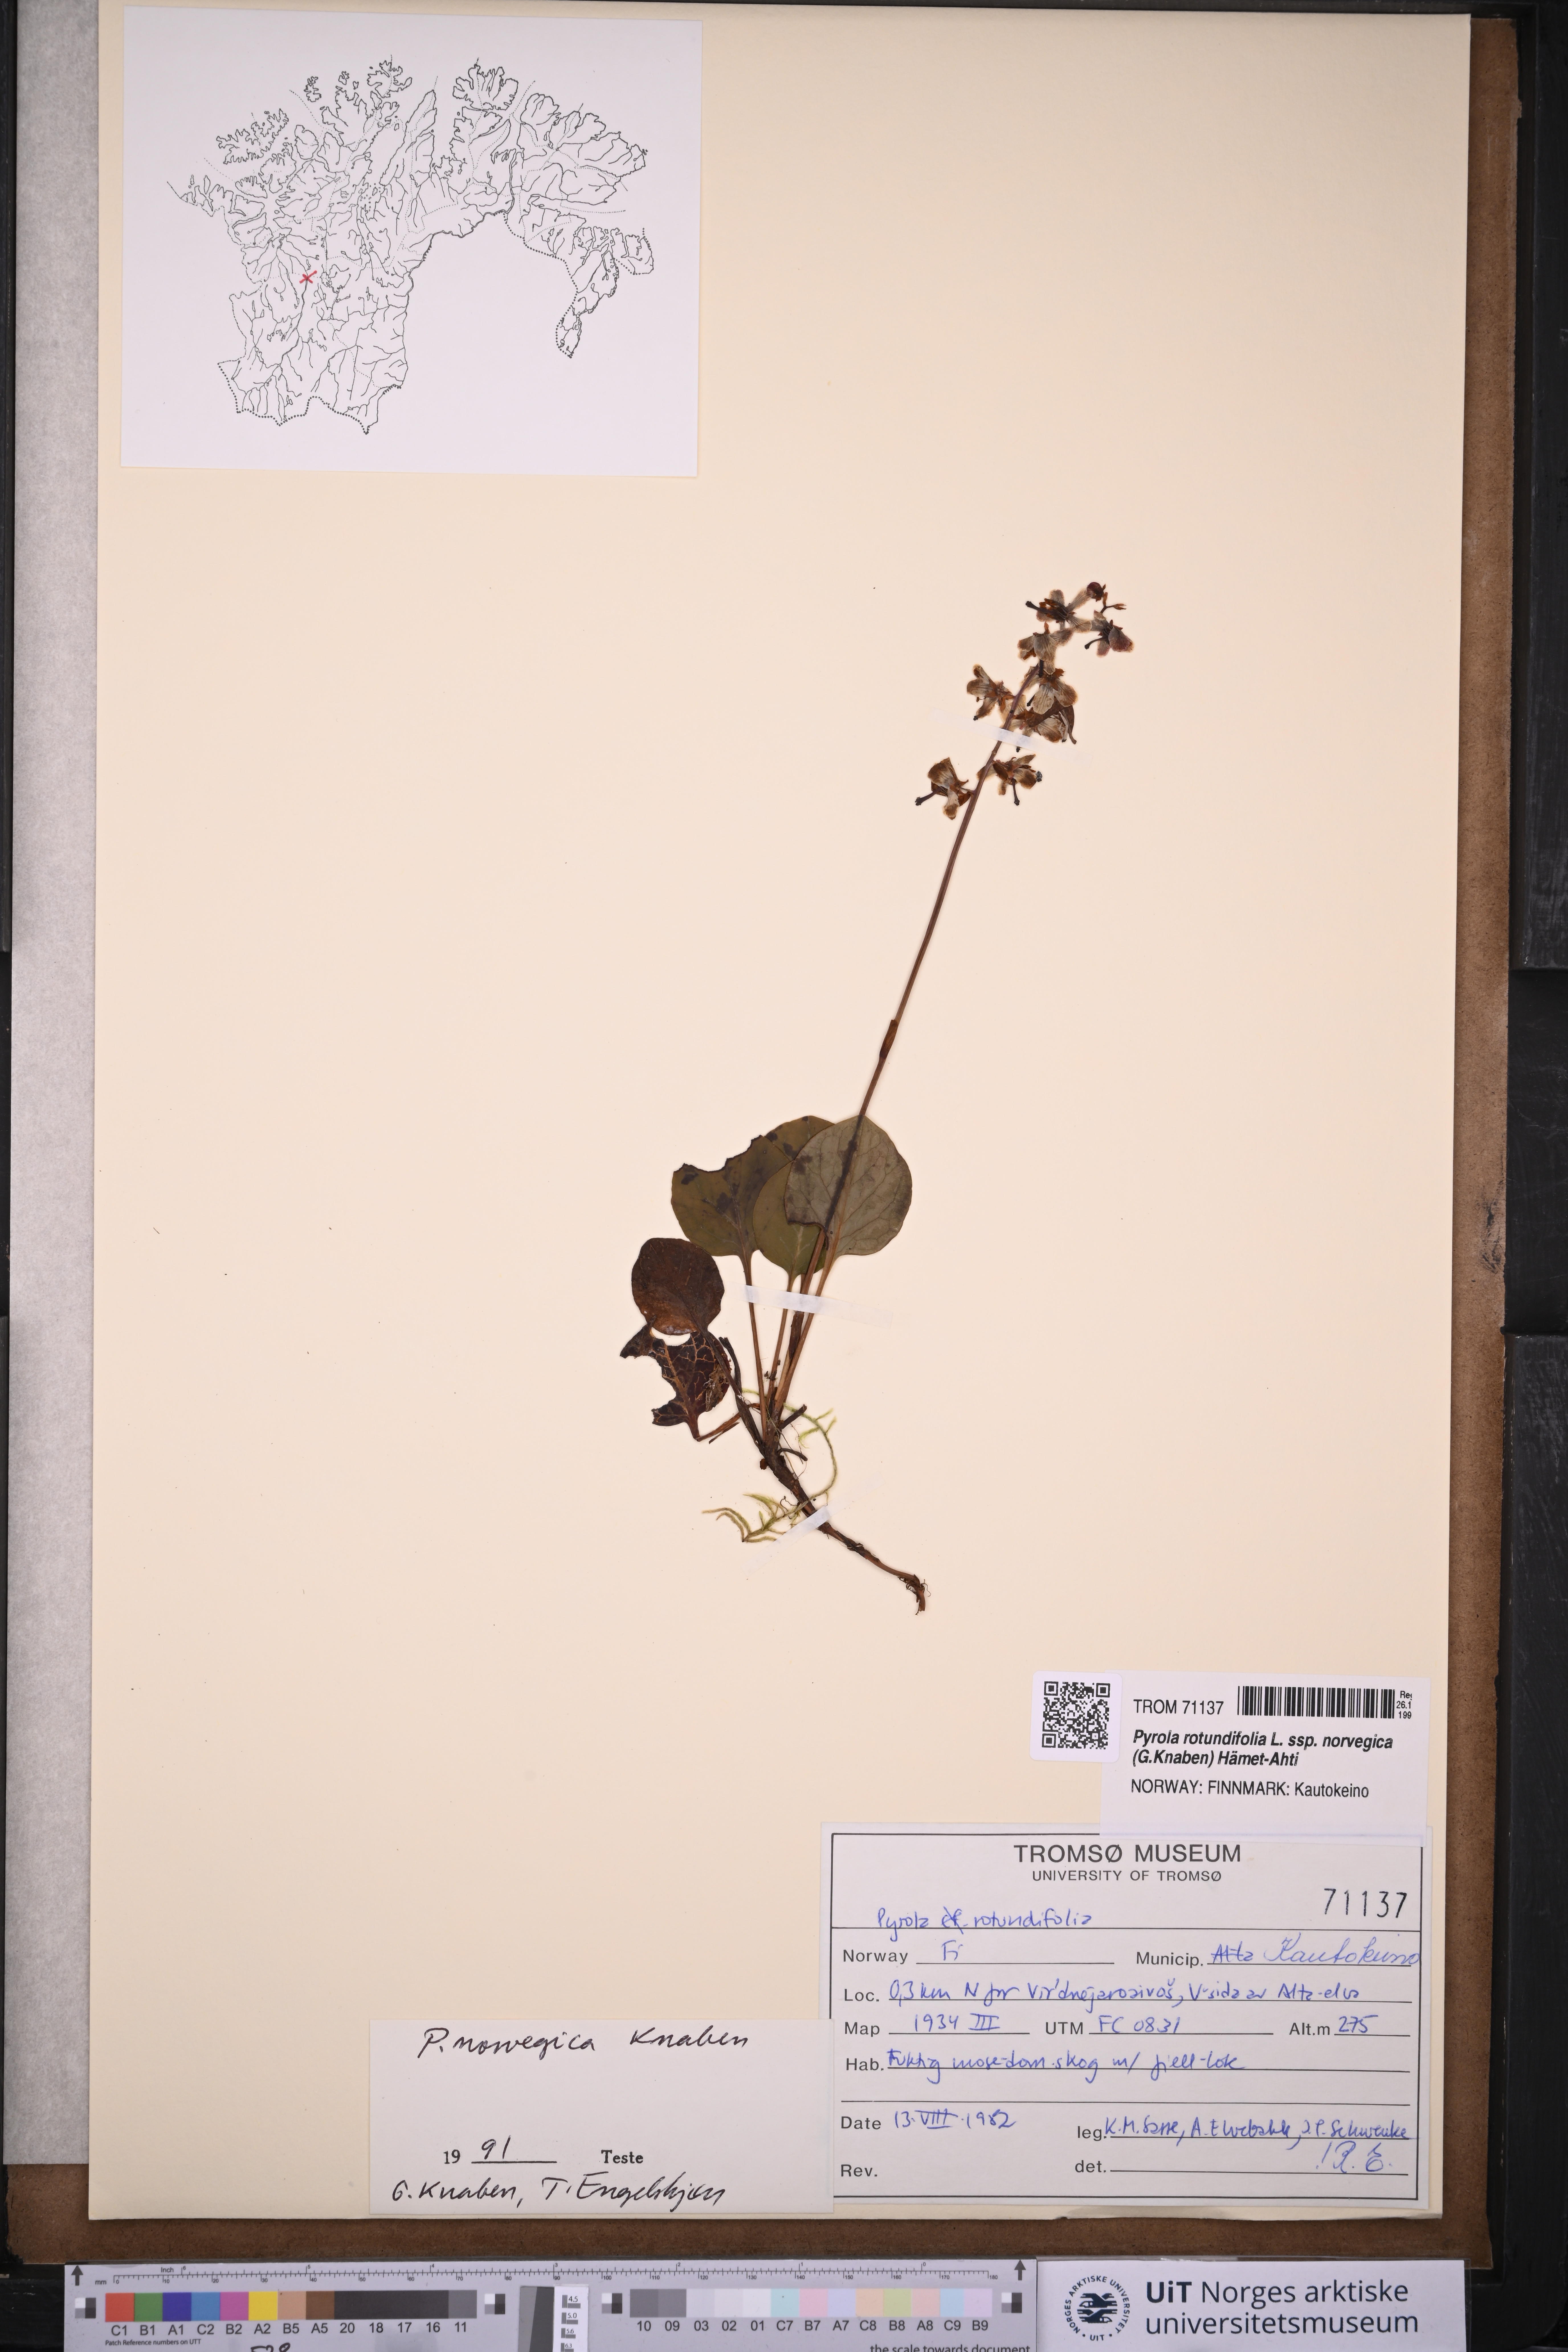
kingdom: Plantae
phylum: Tracheophyta
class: Magnoliopsida
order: Ericales
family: Ericaceae
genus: Pyrola
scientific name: Pyrola rotundifolia
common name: Round-leaved wintergreen
